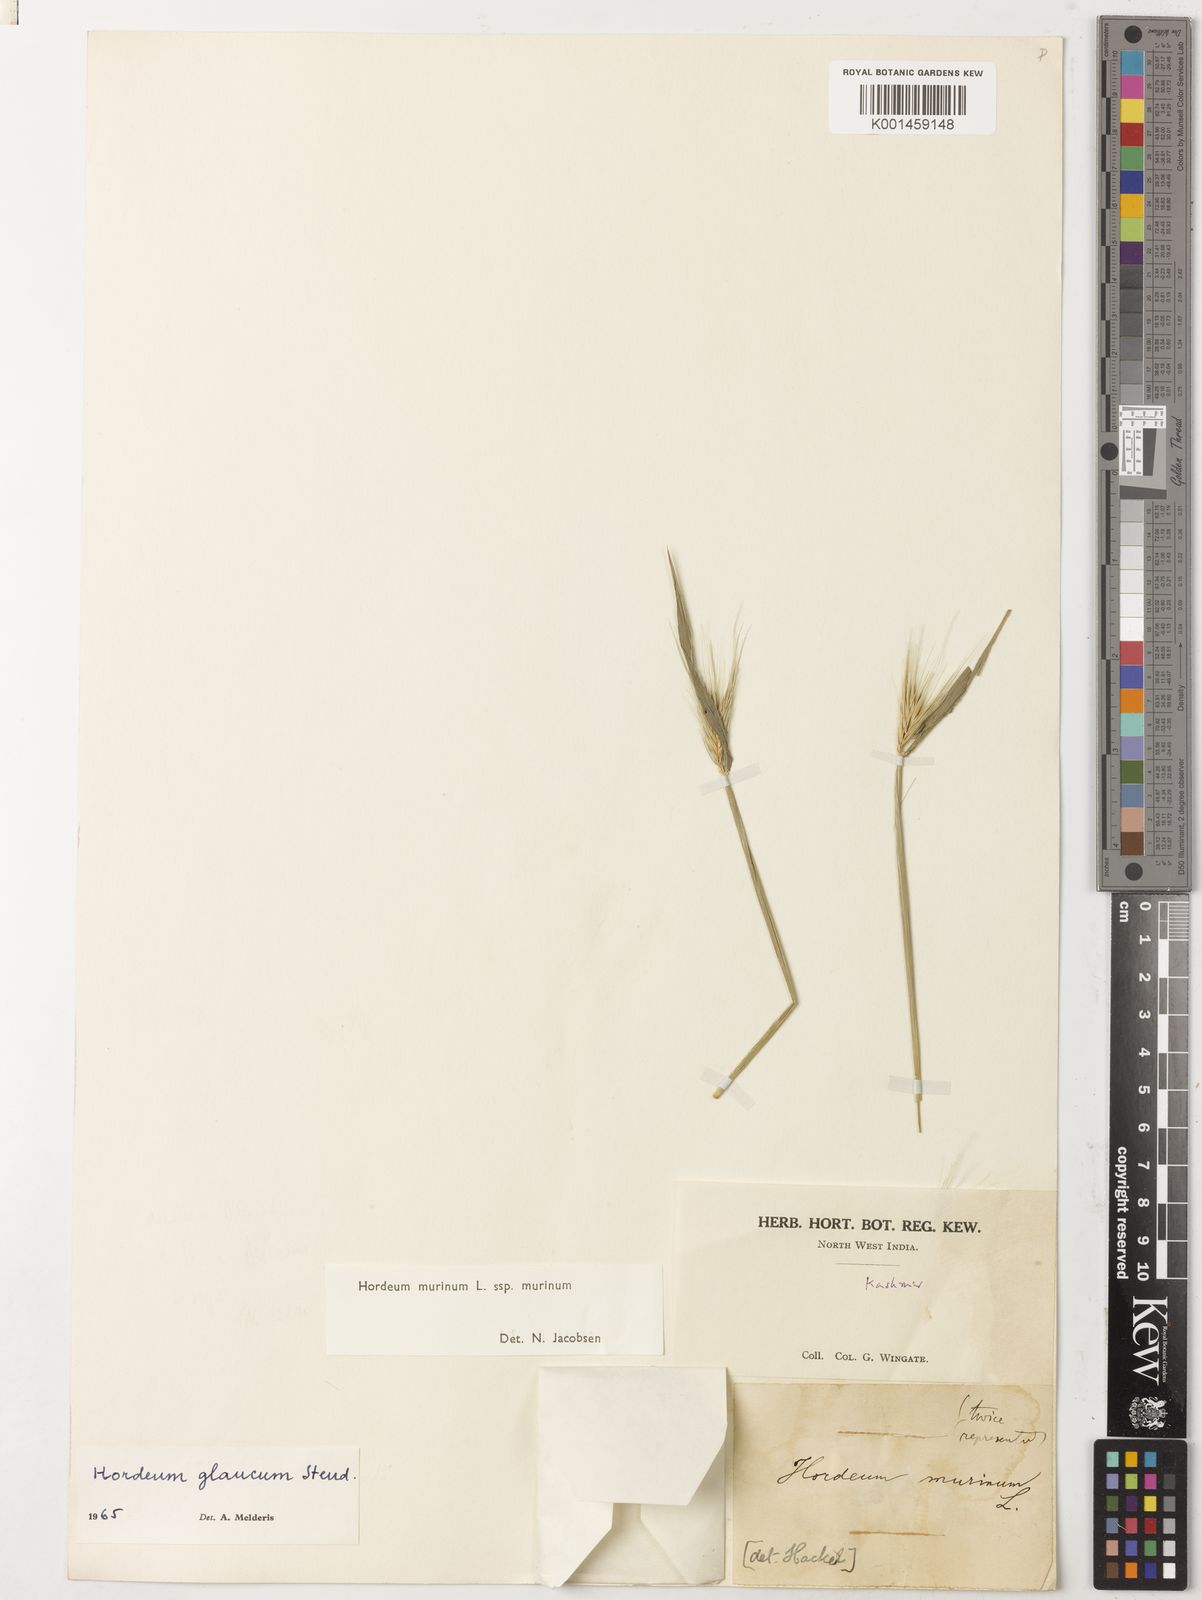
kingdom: Plantae
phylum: Tracheophyta
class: Liliopsida
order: Poales
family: Poaceae
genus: Hordeum
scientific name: Hordeum murinum
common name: Wall barley
